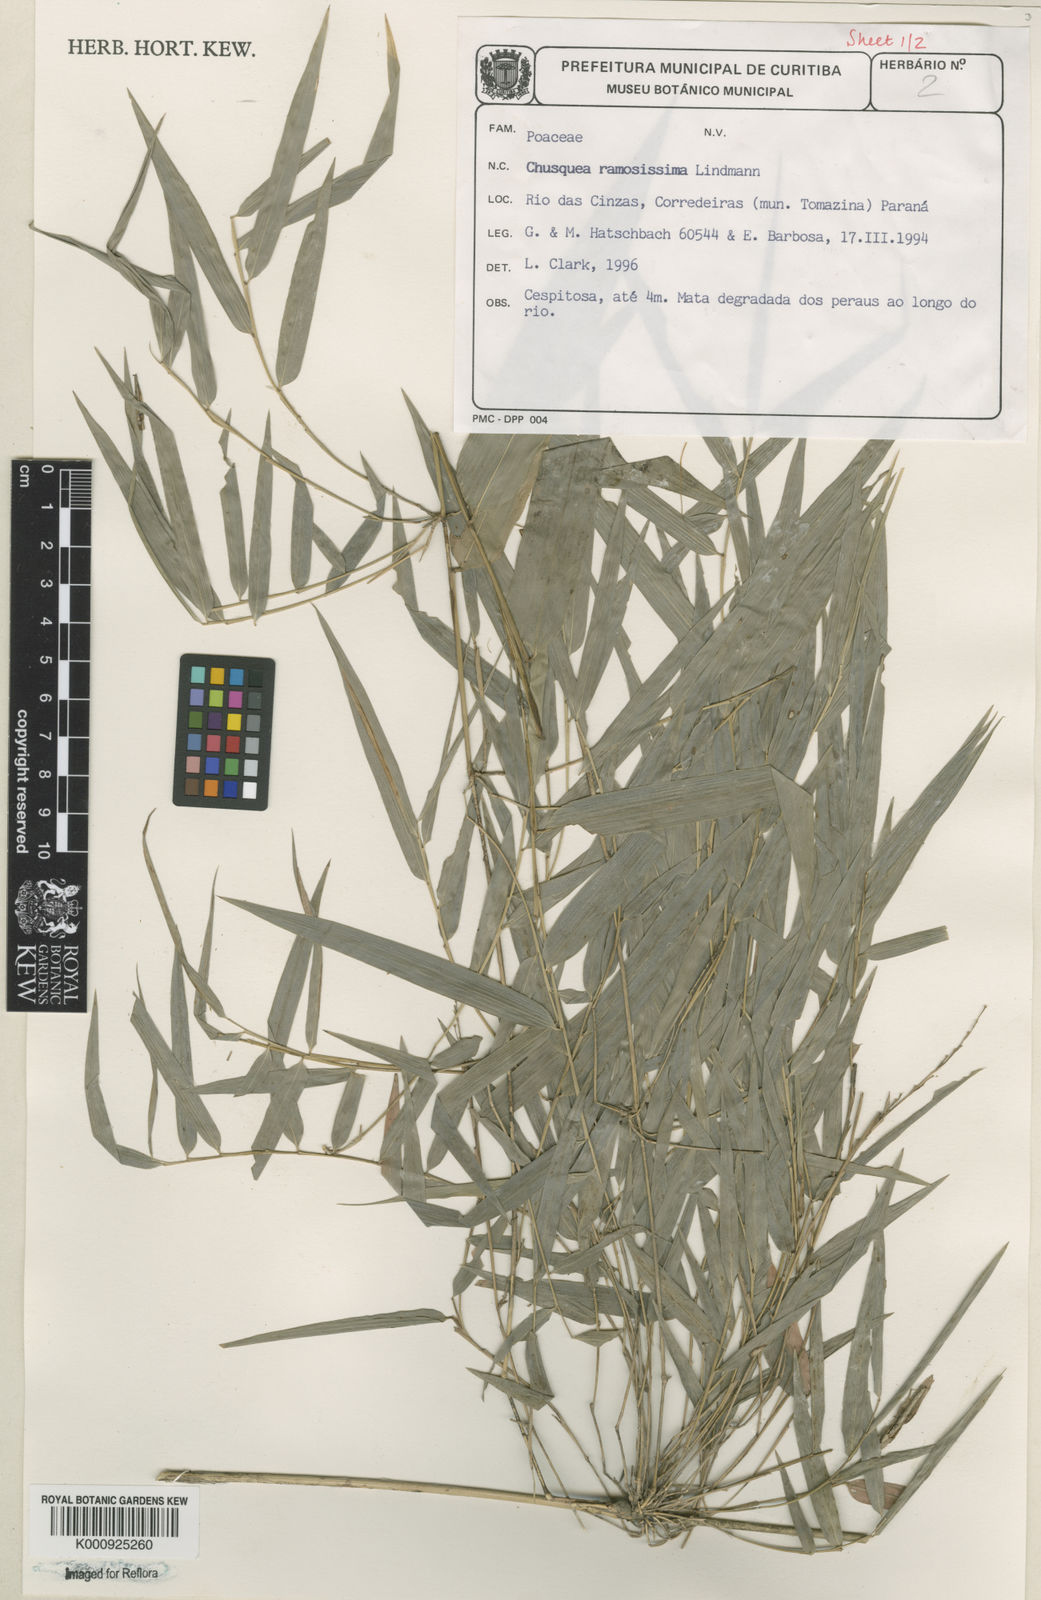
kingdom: Plantae
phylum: Tracheophyta
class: Liliopsida
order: Poales
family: Poaceae
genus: Chusquea
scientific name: Chusquea ramosissima
